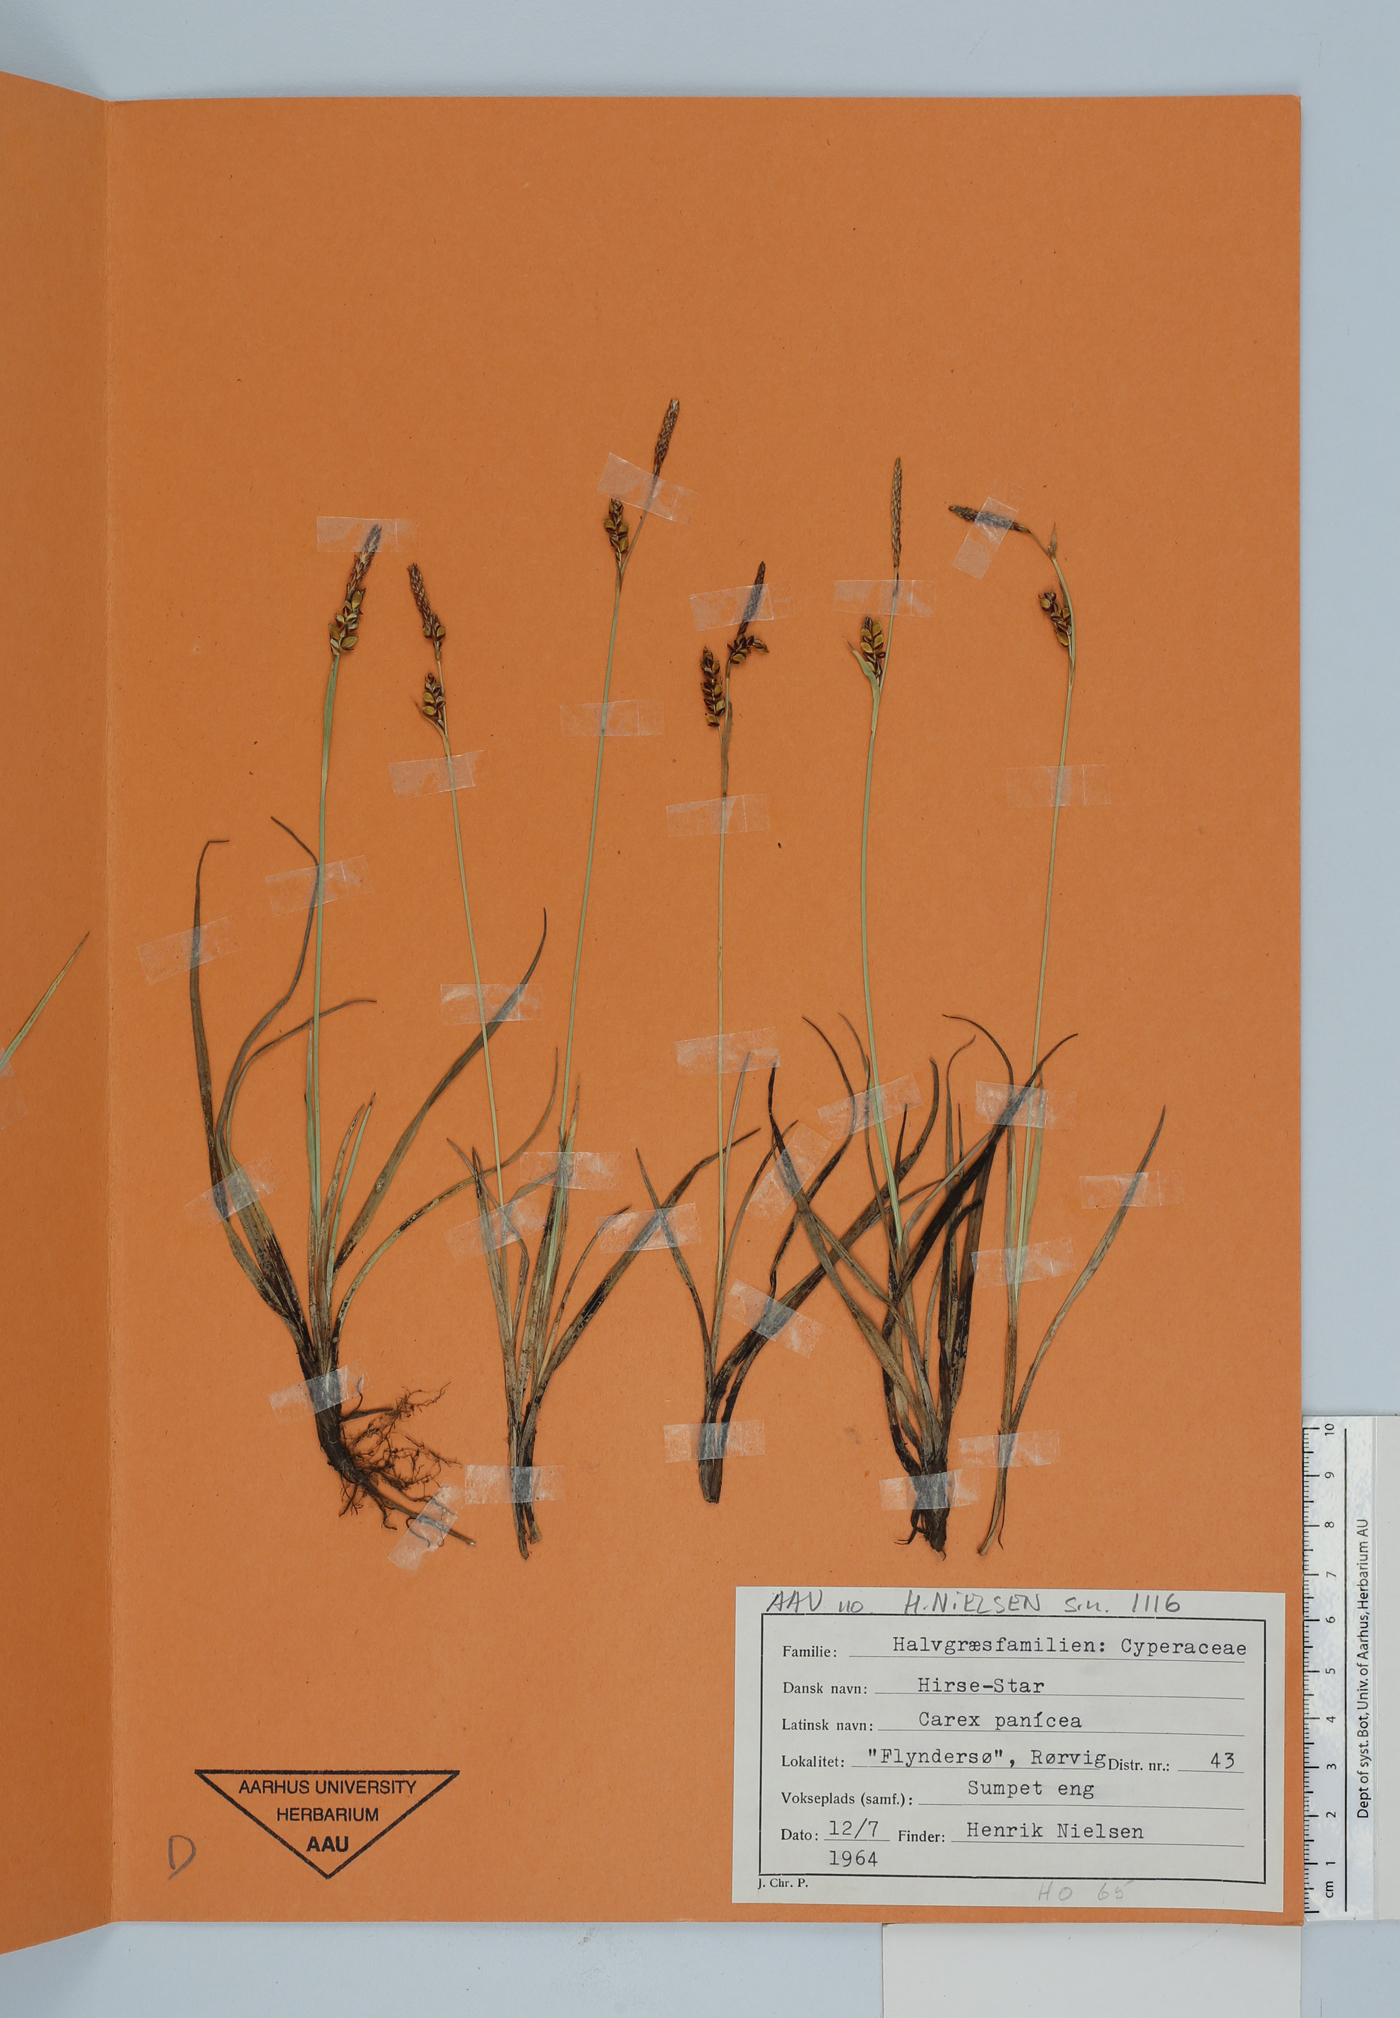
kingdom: Plantae
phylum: Tracheophyta
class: Liliopsida
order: Poales
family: Cyperaceae
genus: Carex
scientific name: Carex panicea
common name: Carnation sedge
